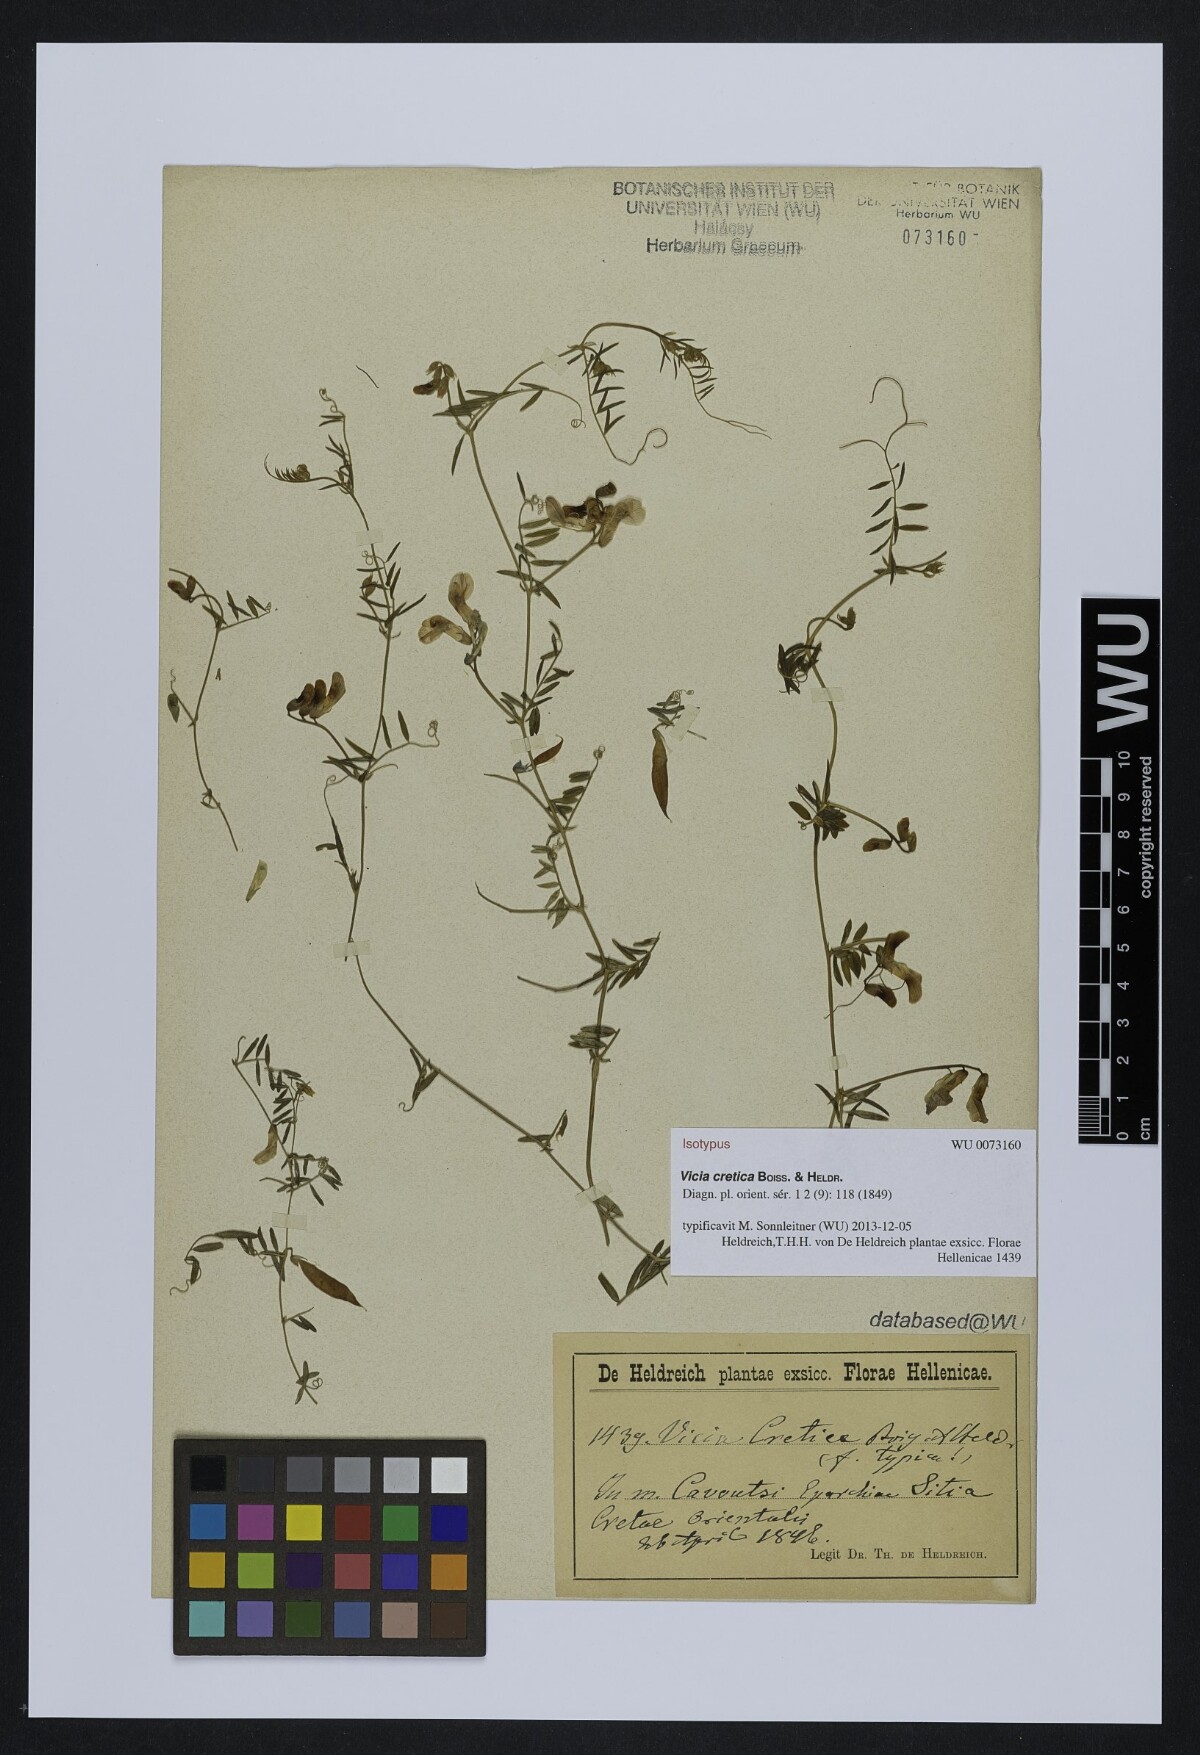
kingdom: Plantae
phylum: Tracheophyta
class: Magnoliopsida
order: Fabales
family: Fabaceae
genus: Vicia
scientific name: Vicia cretica
